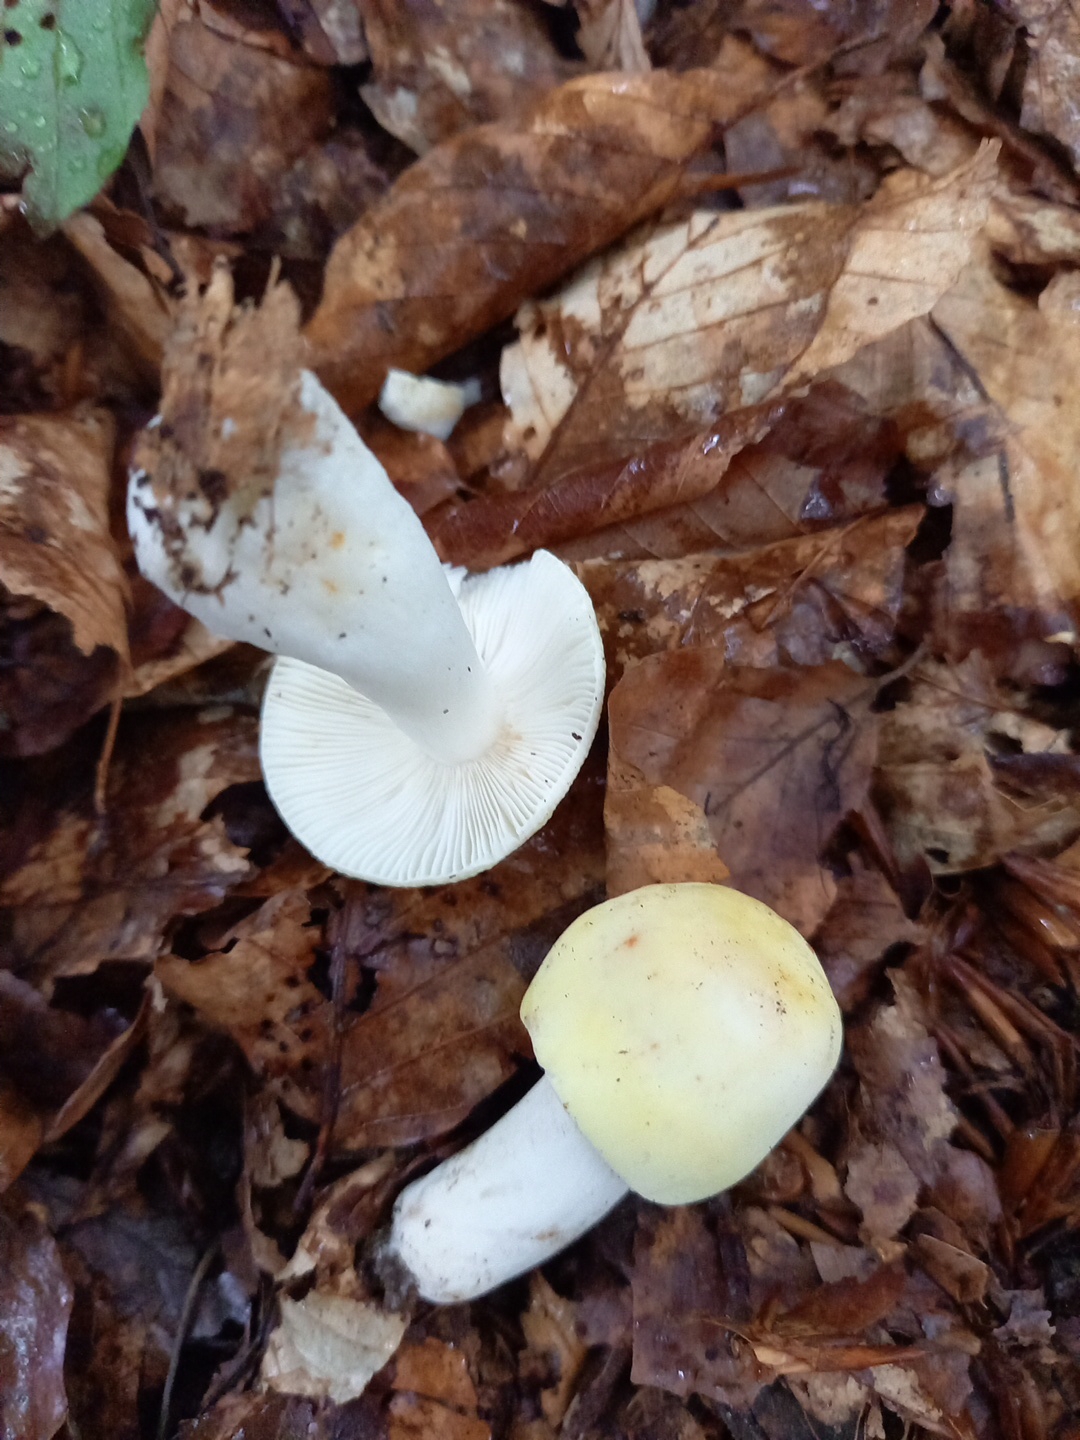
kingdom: Fungi
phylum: Basidiomycota
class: Agaricomycetes
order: Russulales
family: Russulaceae
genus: Russula
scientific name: Russula violeipes
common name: ferskengul skørhat
